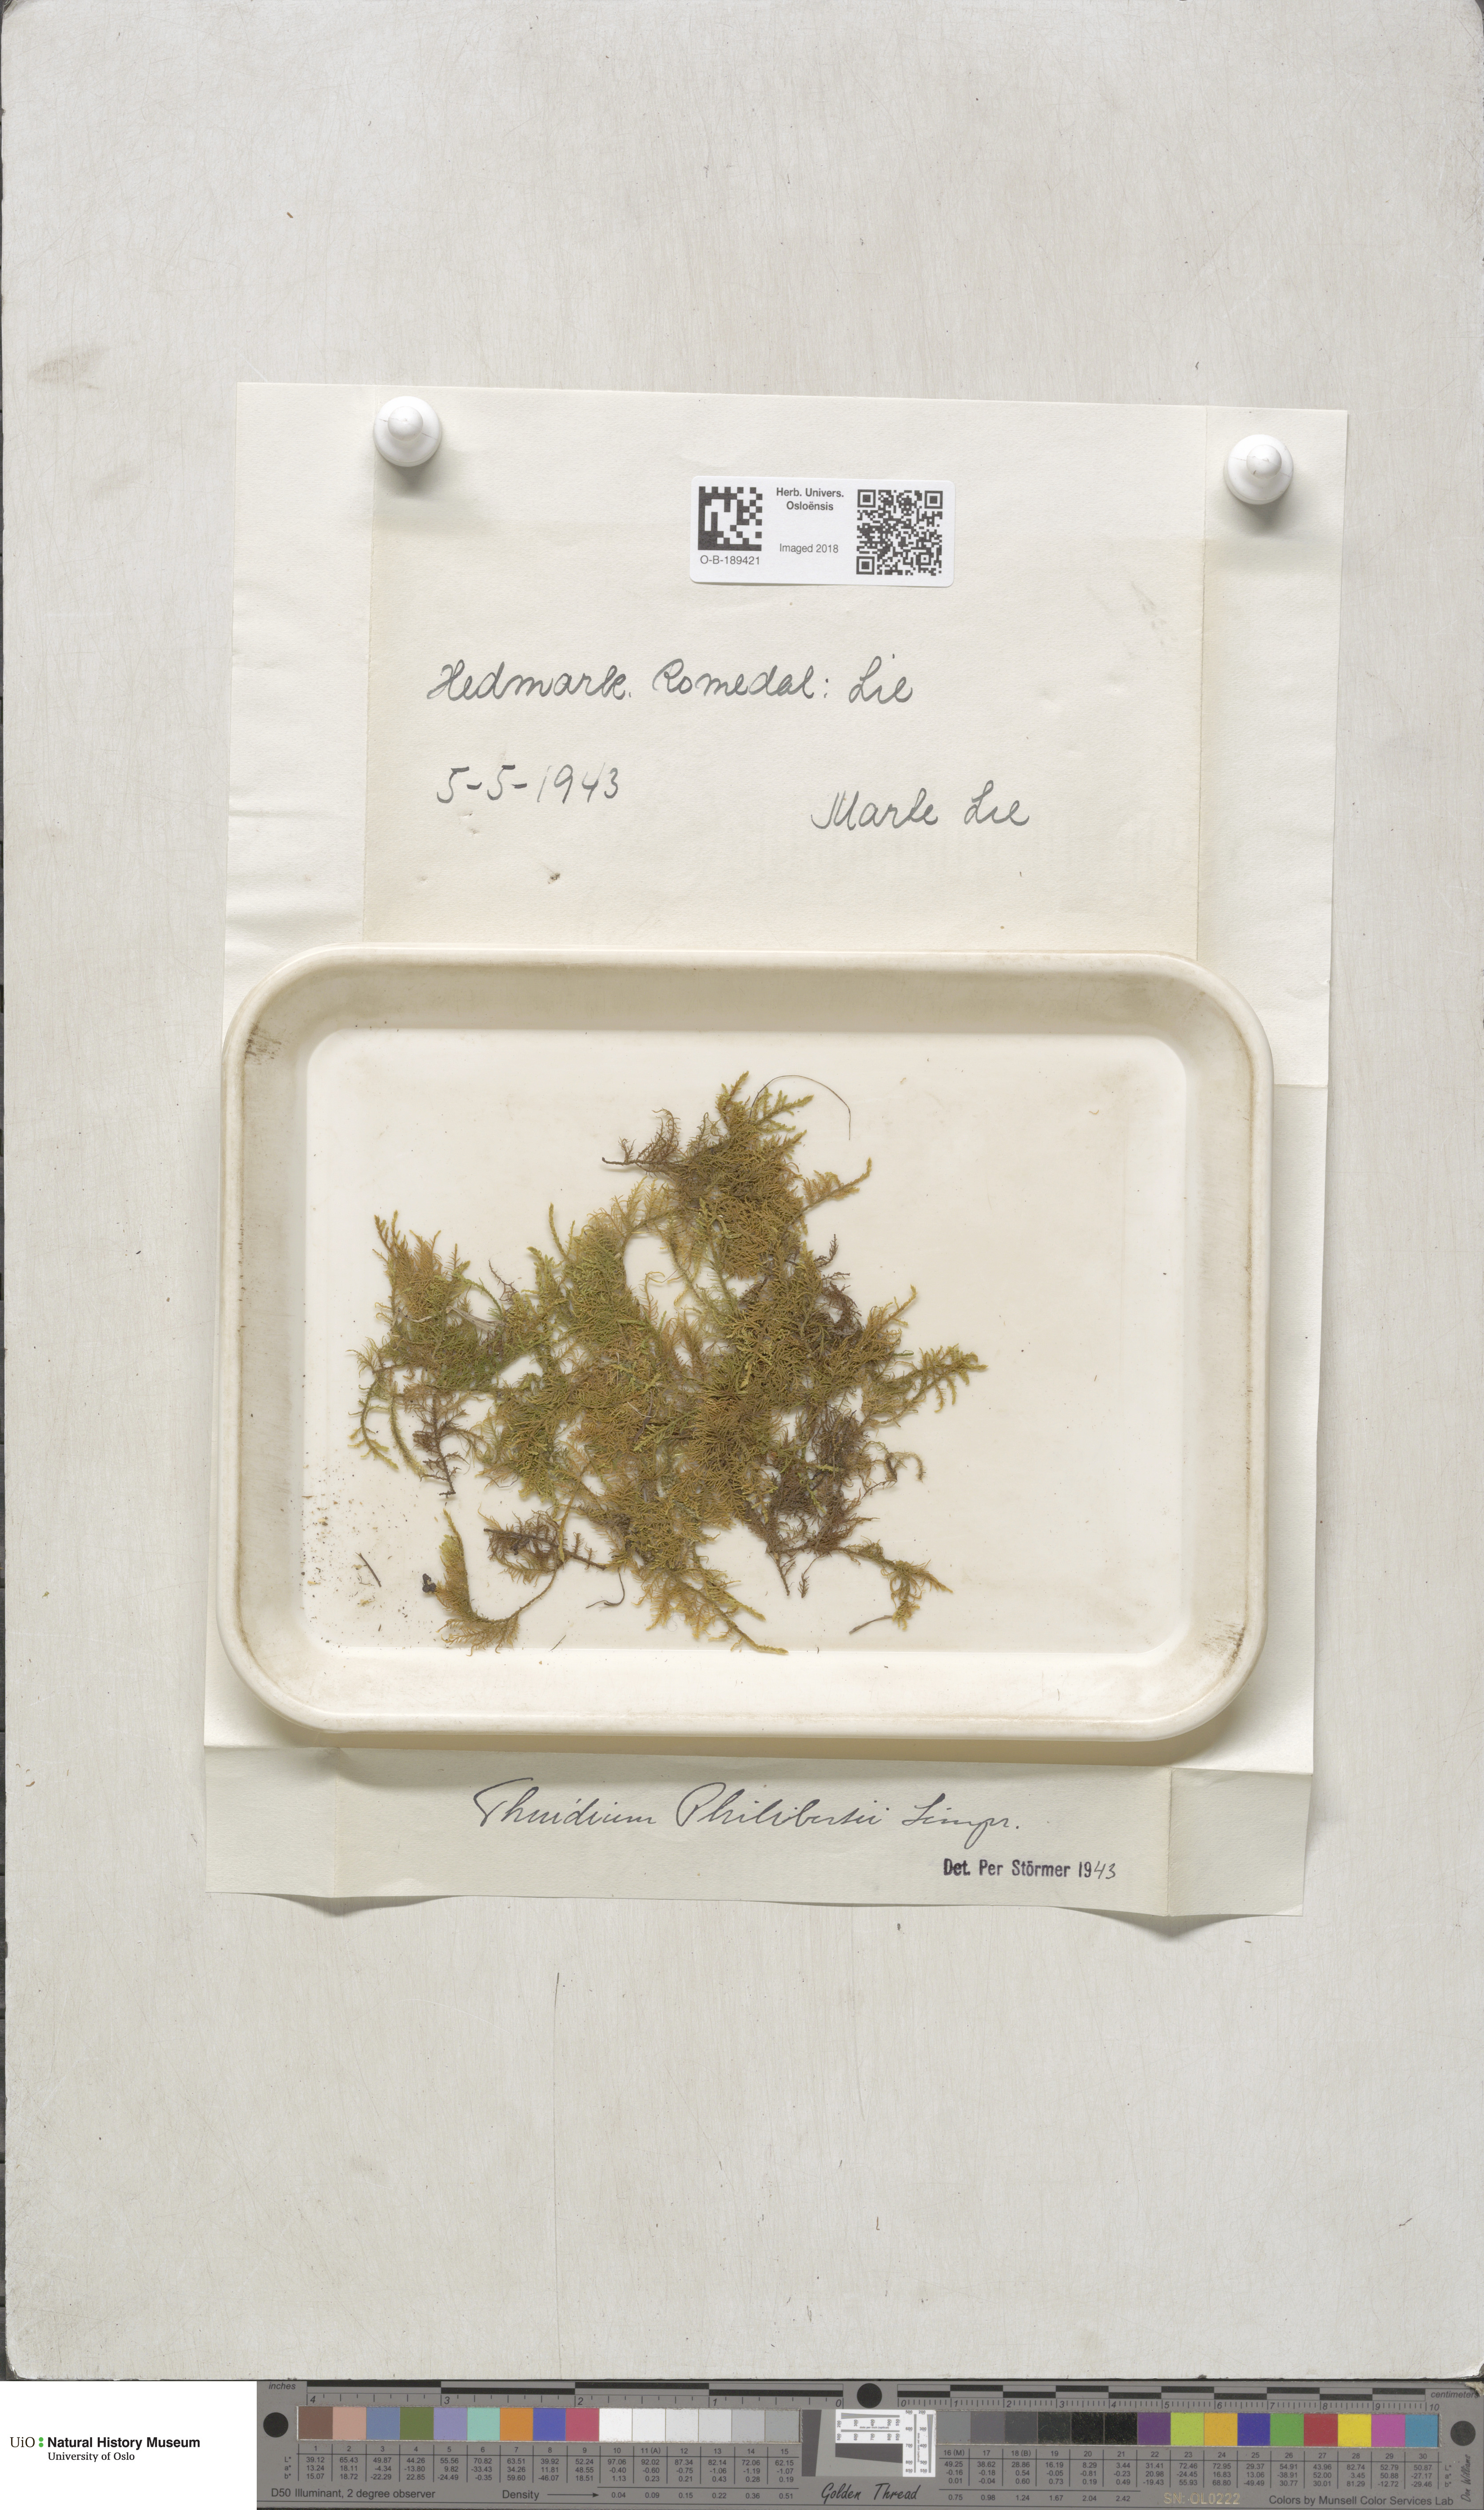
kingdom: Plantae
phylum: Bryophyta
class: Bryopsida
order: Hypnales
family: Thuidiaceae
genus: Thuidium
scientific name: Thuidium assimile
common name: Philibert's fern moss
